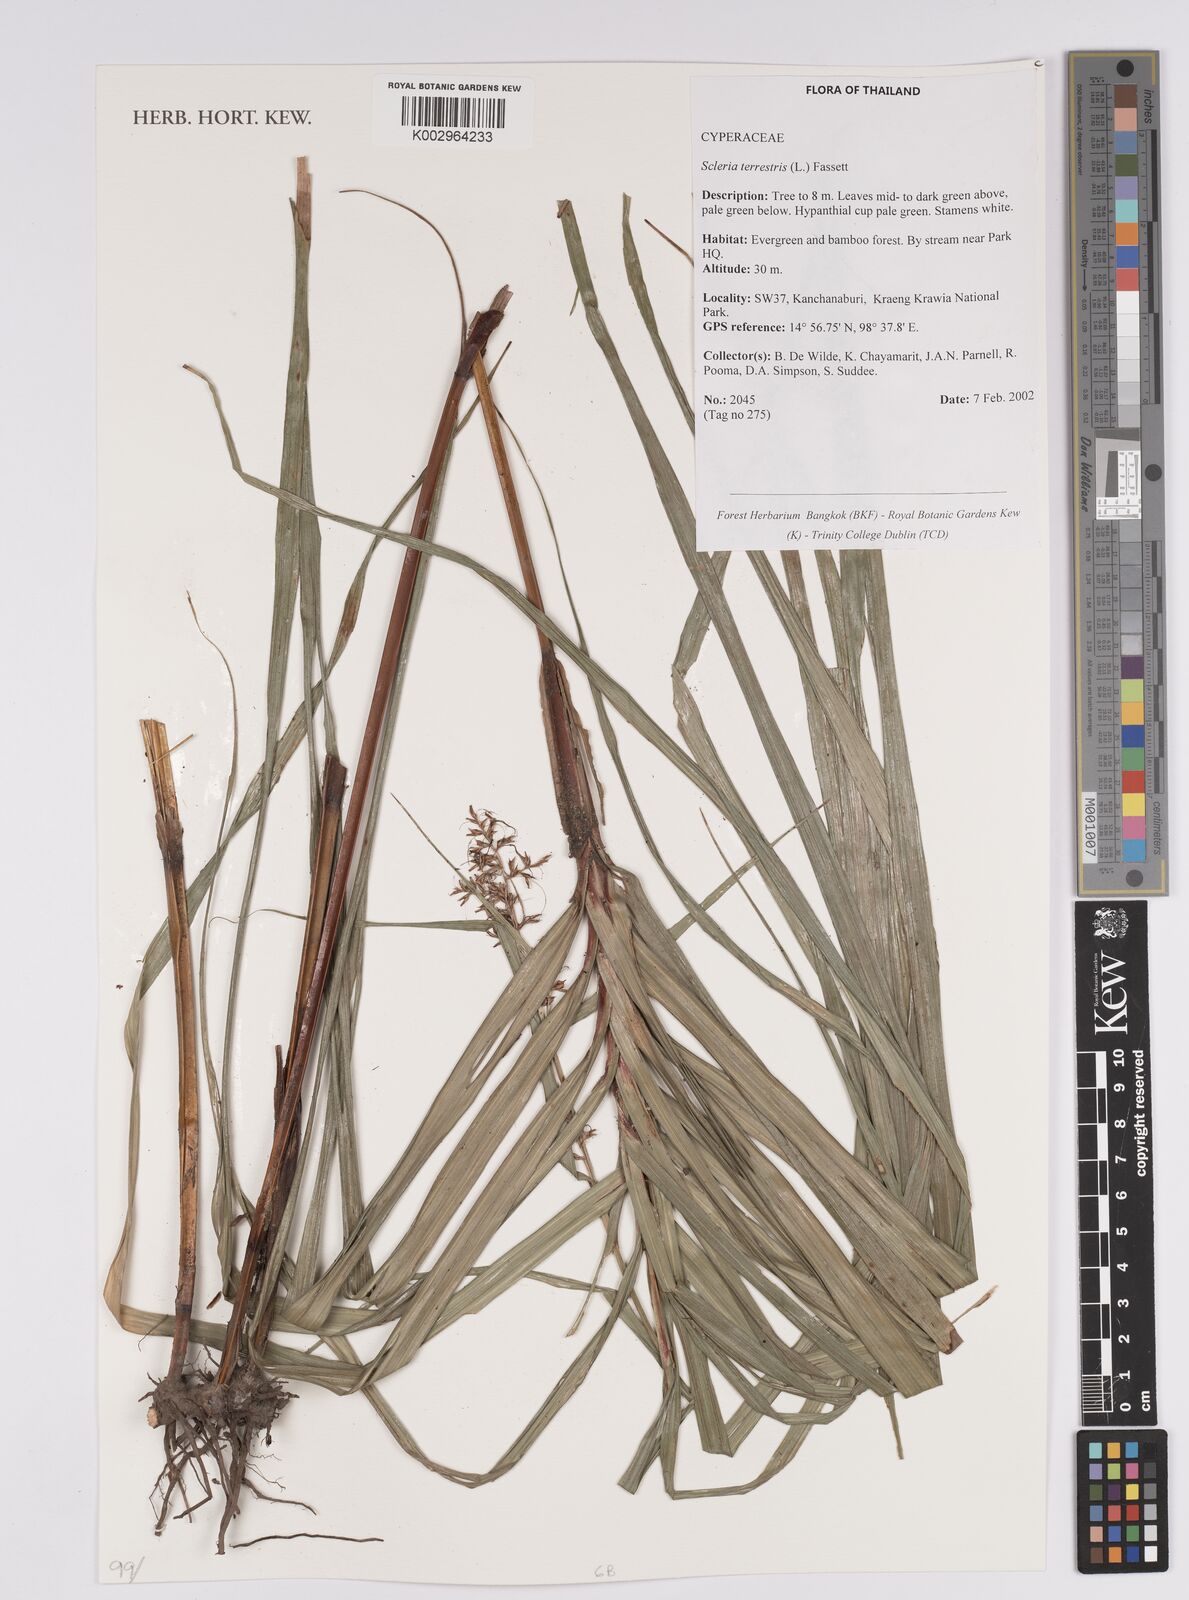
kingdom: Plantae
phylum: Tracheophyta
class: Liliopsida
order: Poales
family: Cyperaceae
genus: Scleria
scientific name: Scleria terrestris
